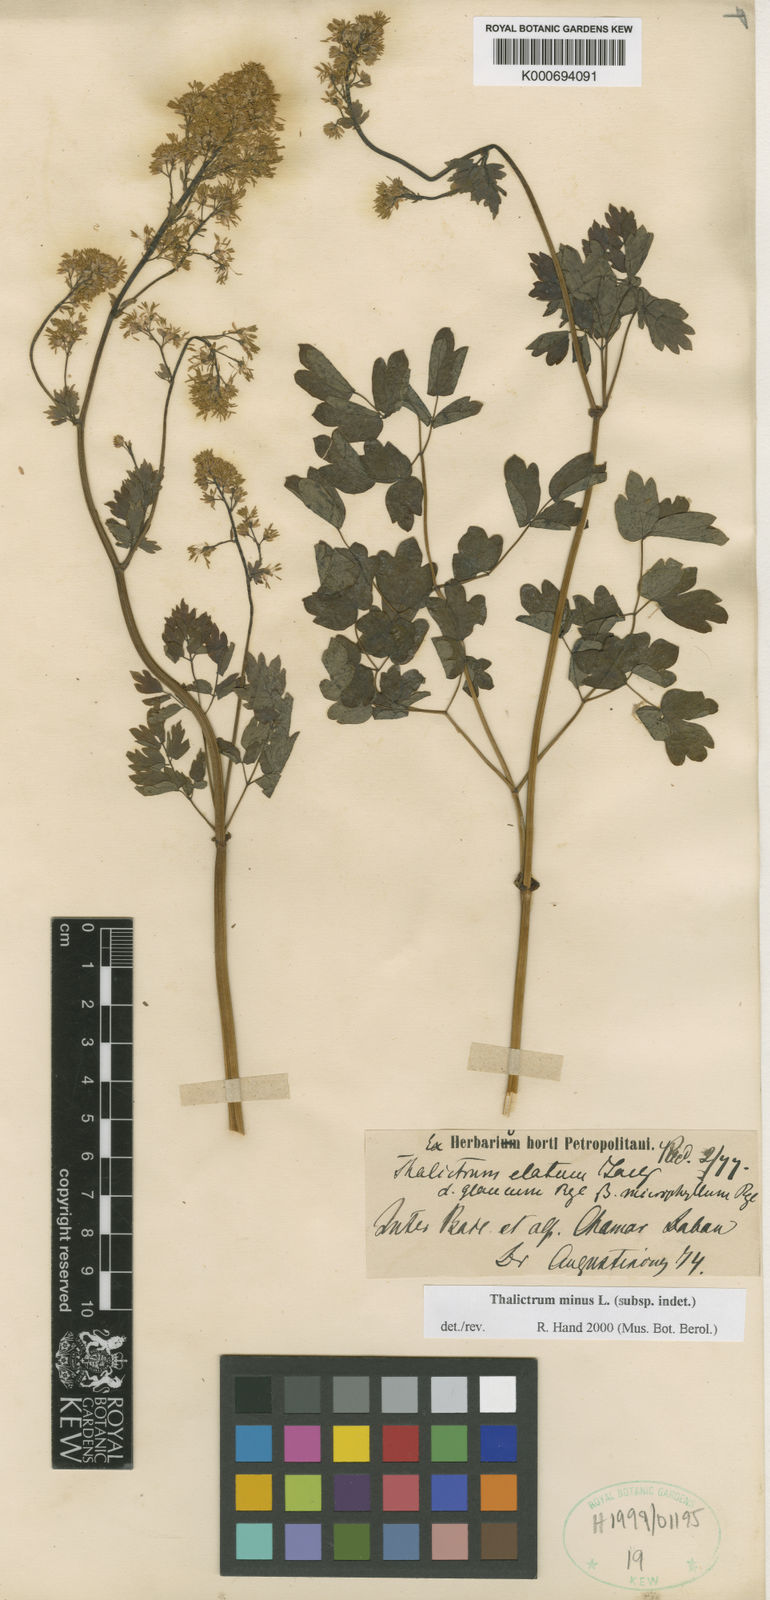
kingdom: Plantae
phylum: Tracheophyta
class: Magnoliopsida
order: Ranunculales
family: Ranunculaceae
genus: Thalictrum
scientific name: Thalictrum minus
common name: Lesser meadow-rue
